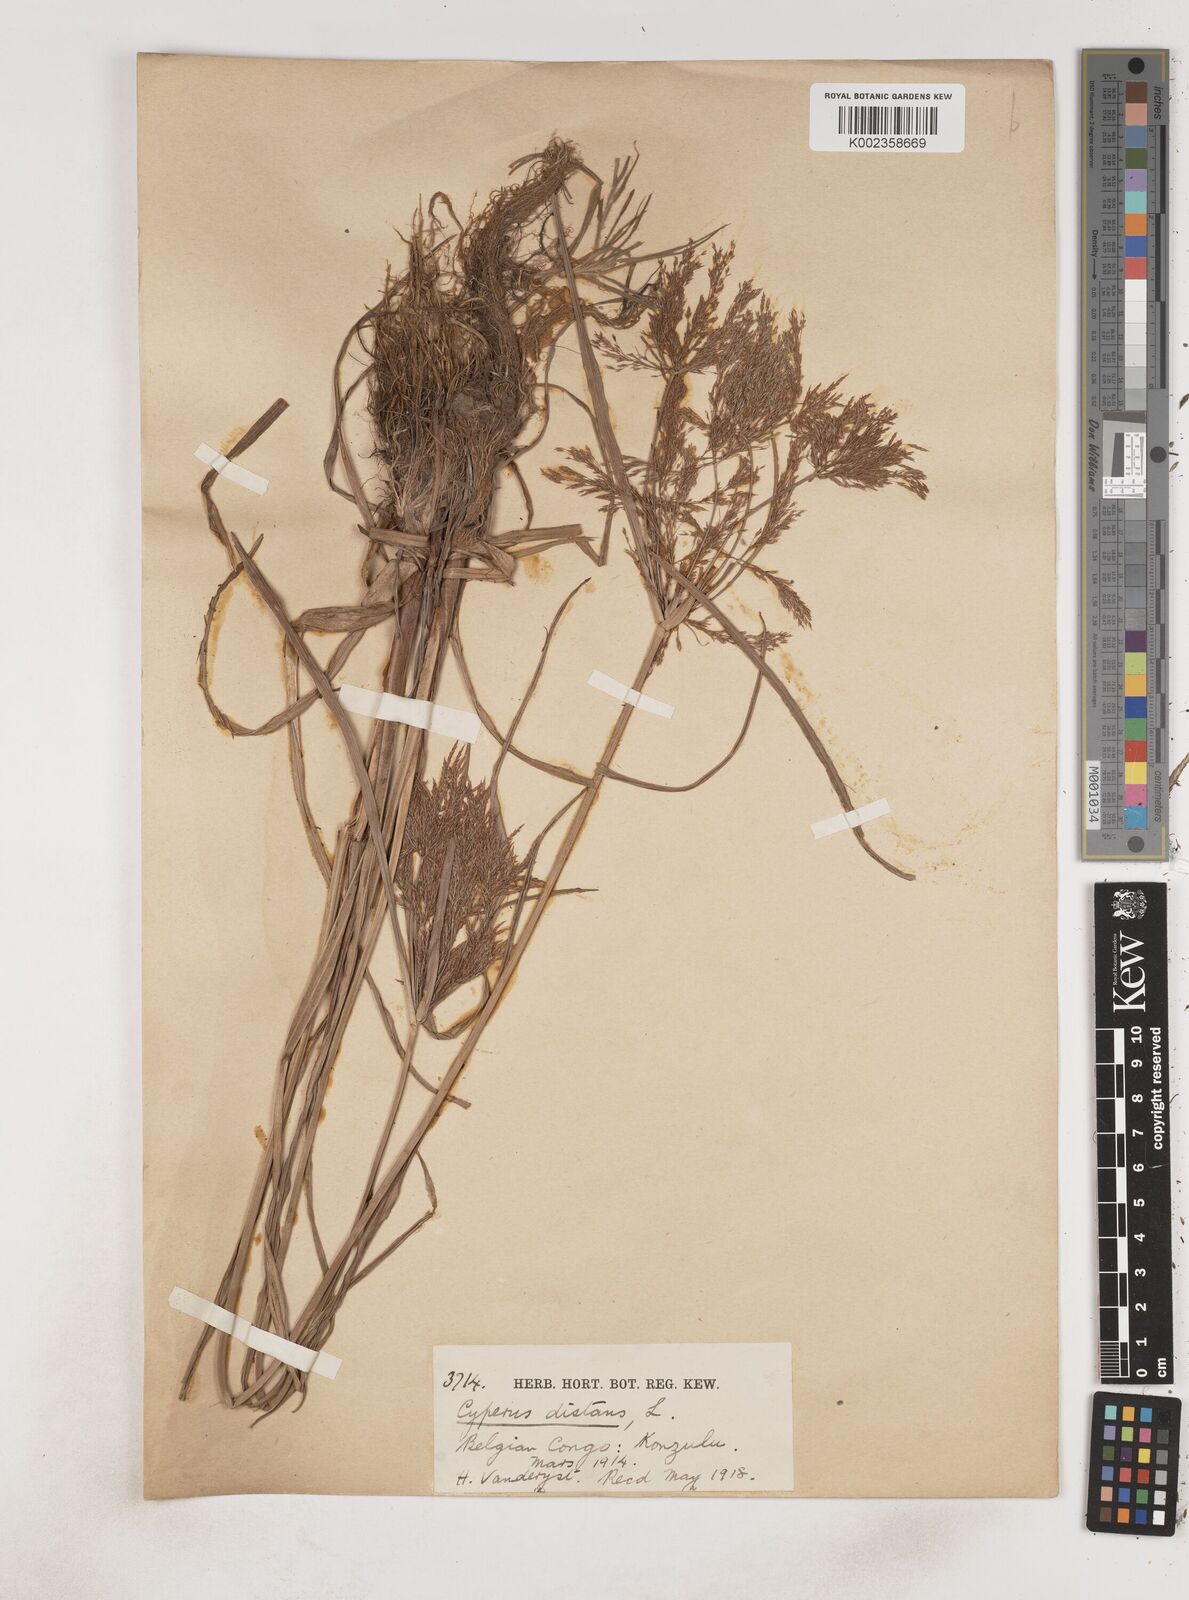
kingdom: Plantae
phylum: Tracheophyta
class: Liliopsida
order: Poales
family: Cyperaceae
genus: Cyperus
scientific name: Cyperus distans
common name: Slender cyperus
